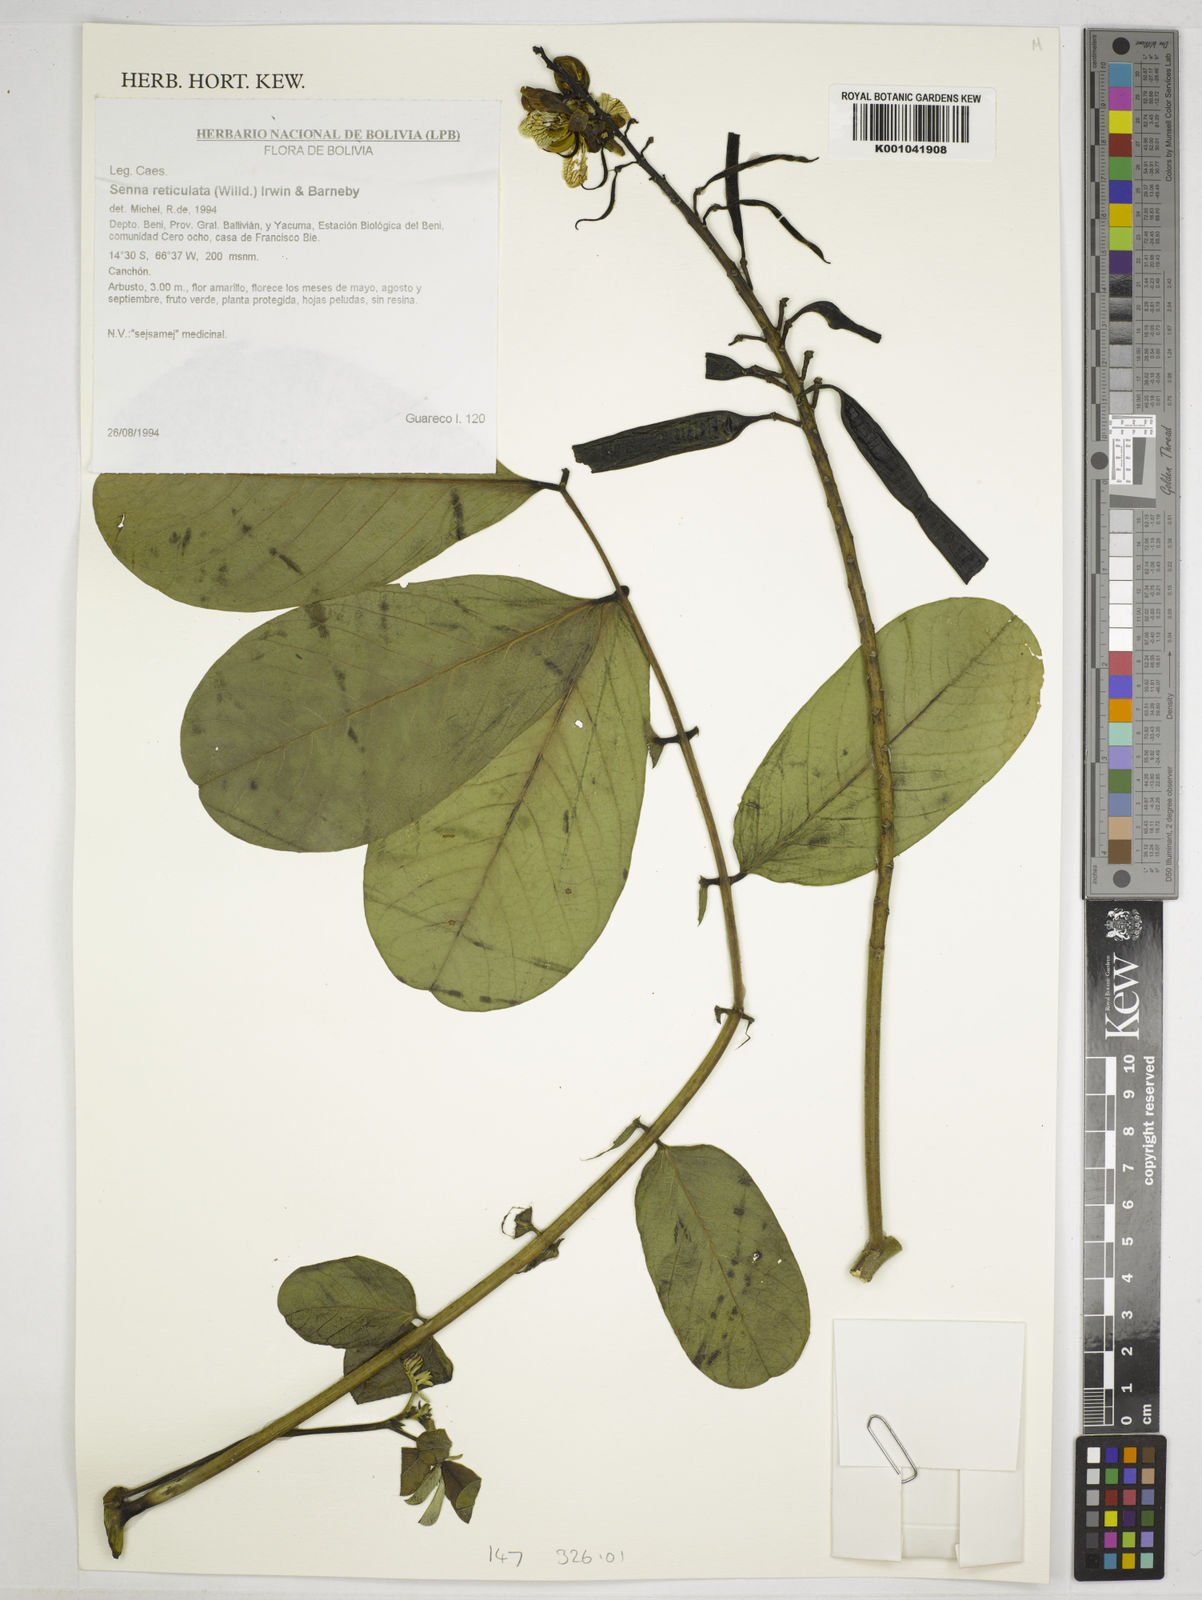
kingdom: Plantae
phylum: Tracheophyta
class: Magnoliopsida
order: Fabales
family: Fabaceae
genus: Senna
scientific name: Senna reticulata
